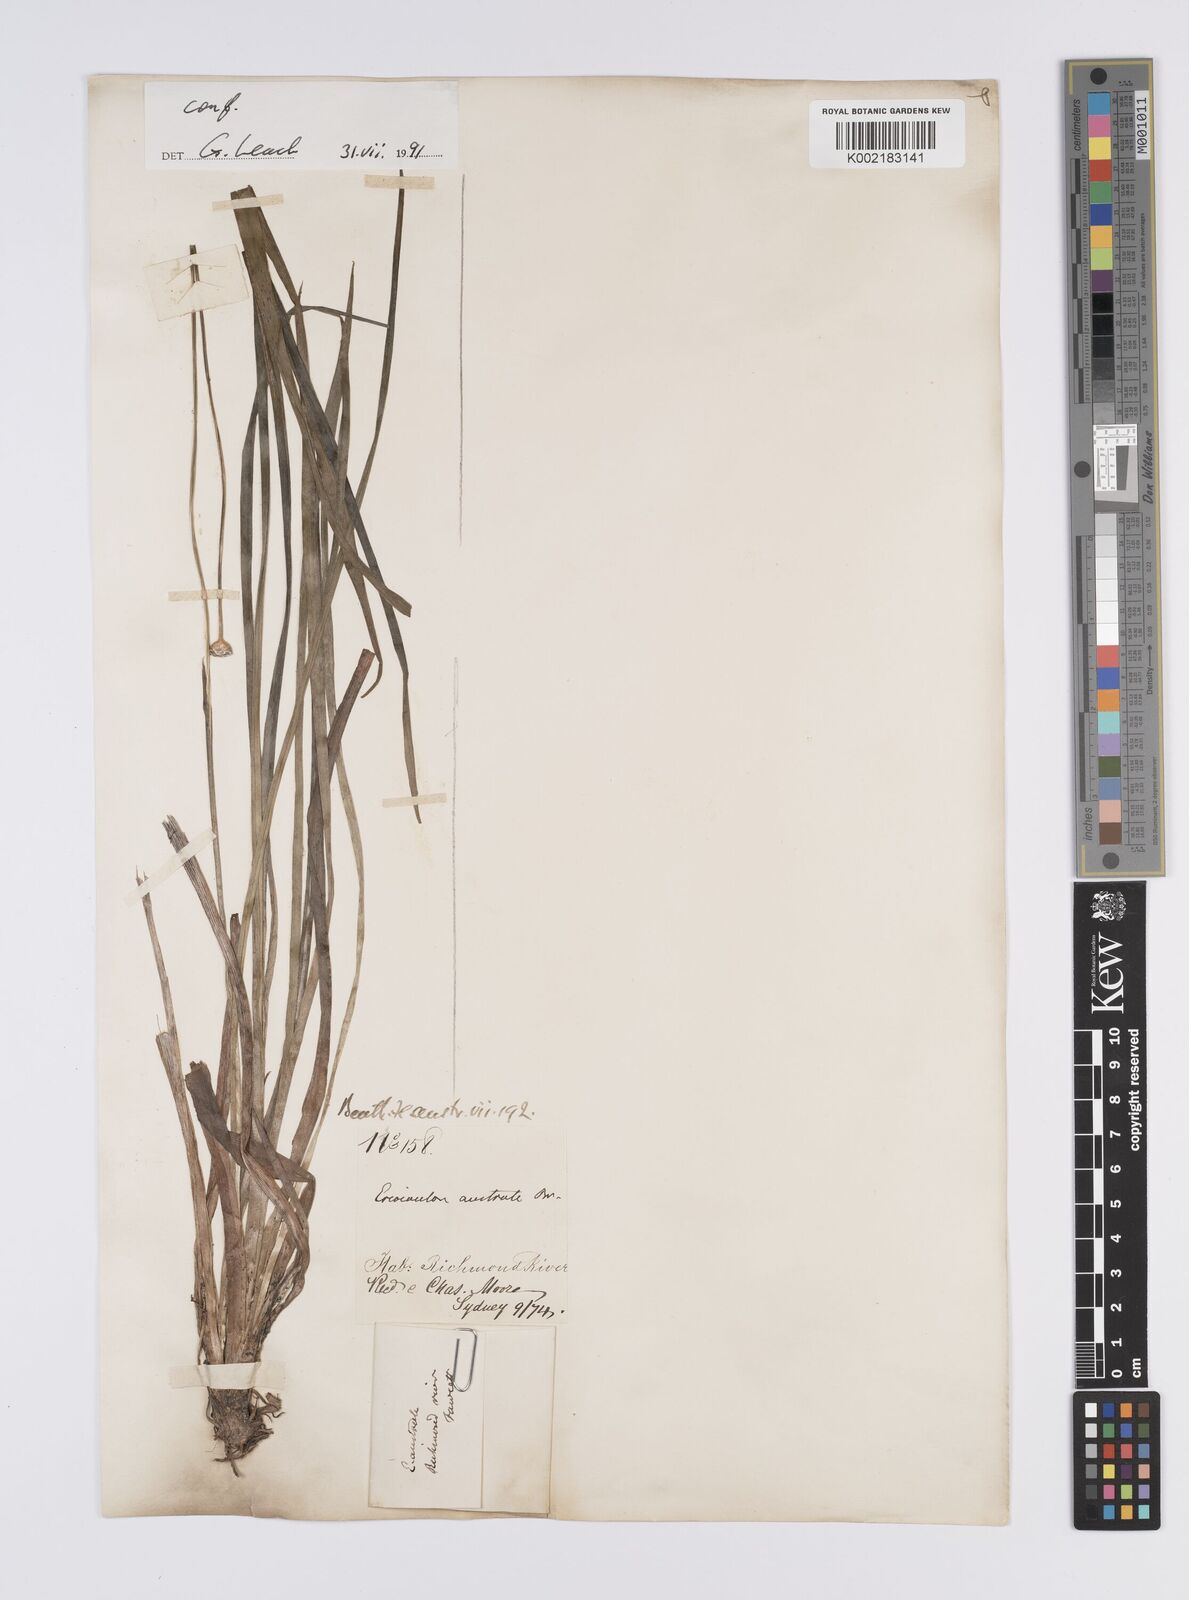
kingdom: Plantae
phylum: Tracheophyta
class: Liliopsida
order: Poales
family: Eriocaulaceae
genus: Eriocaulon
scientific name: Eriocaulon australe
